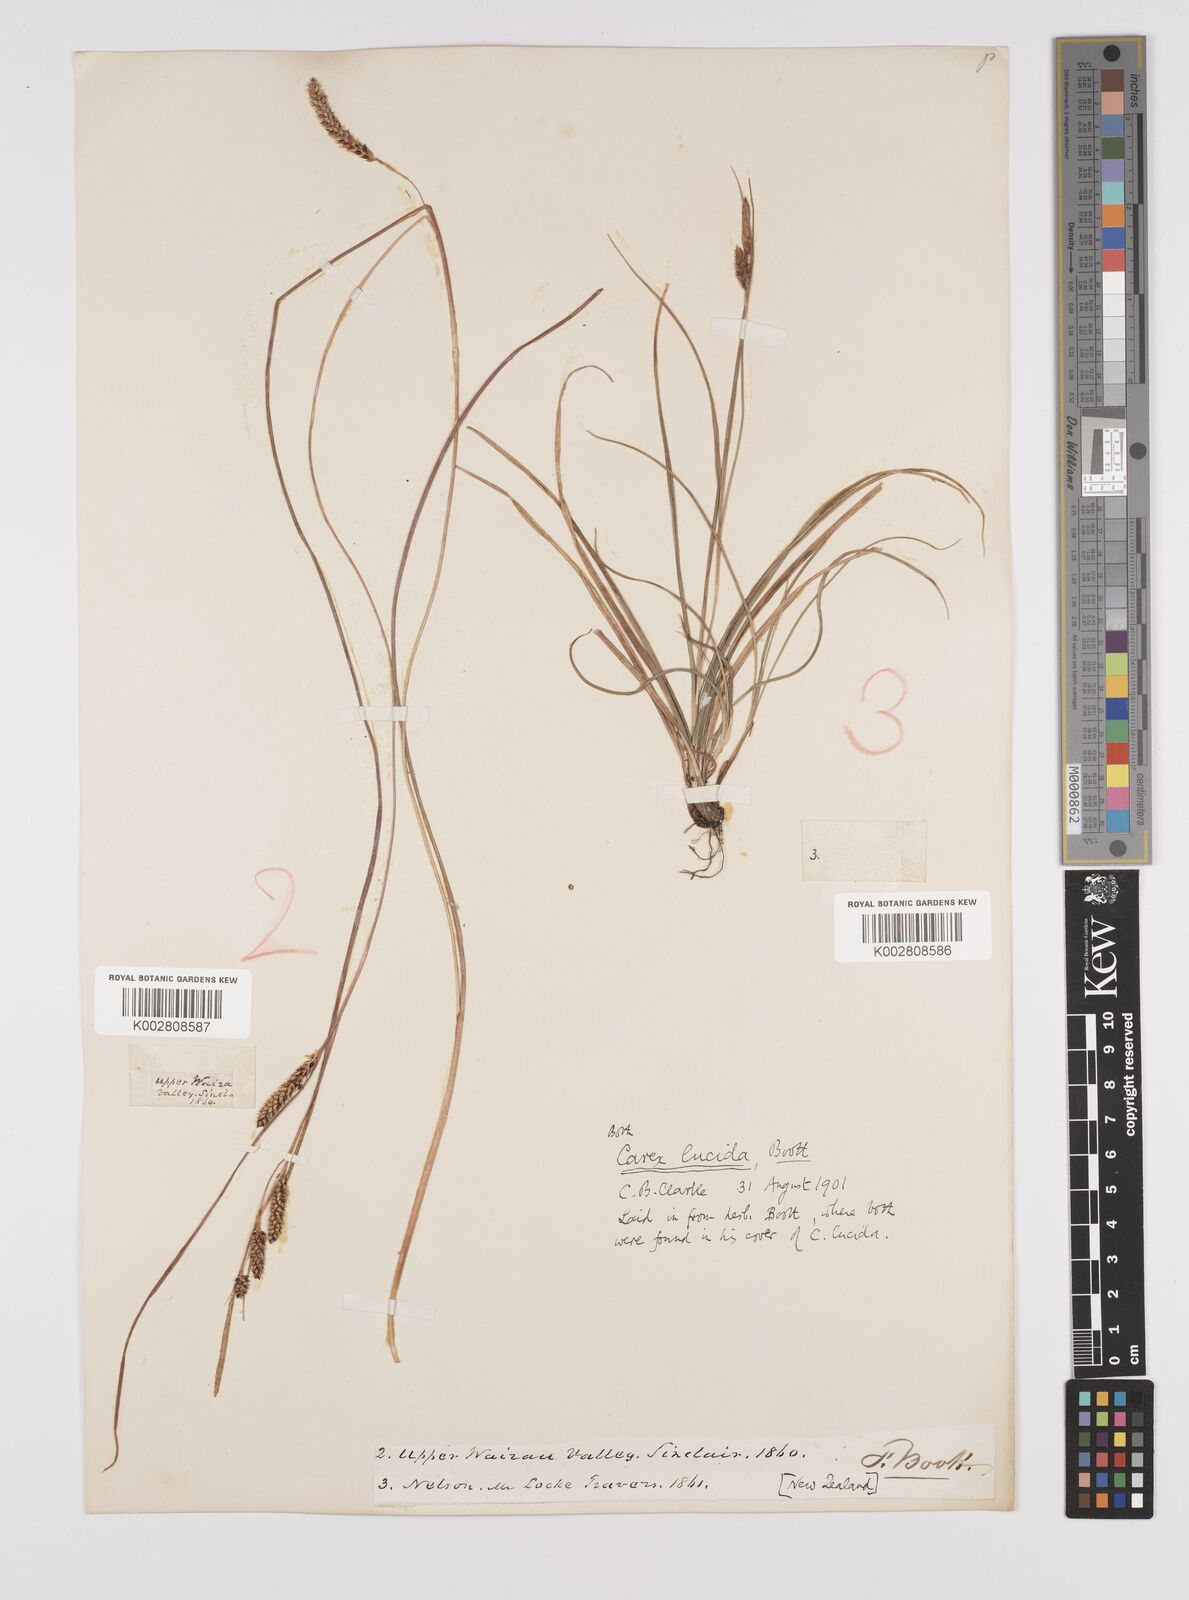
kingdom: Plantae
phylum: Tracheophyta
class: Liliopsida
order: Poales
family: Cyperaceae
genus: Carex
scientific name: Carex flagellifera
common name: Glen murray tussock
